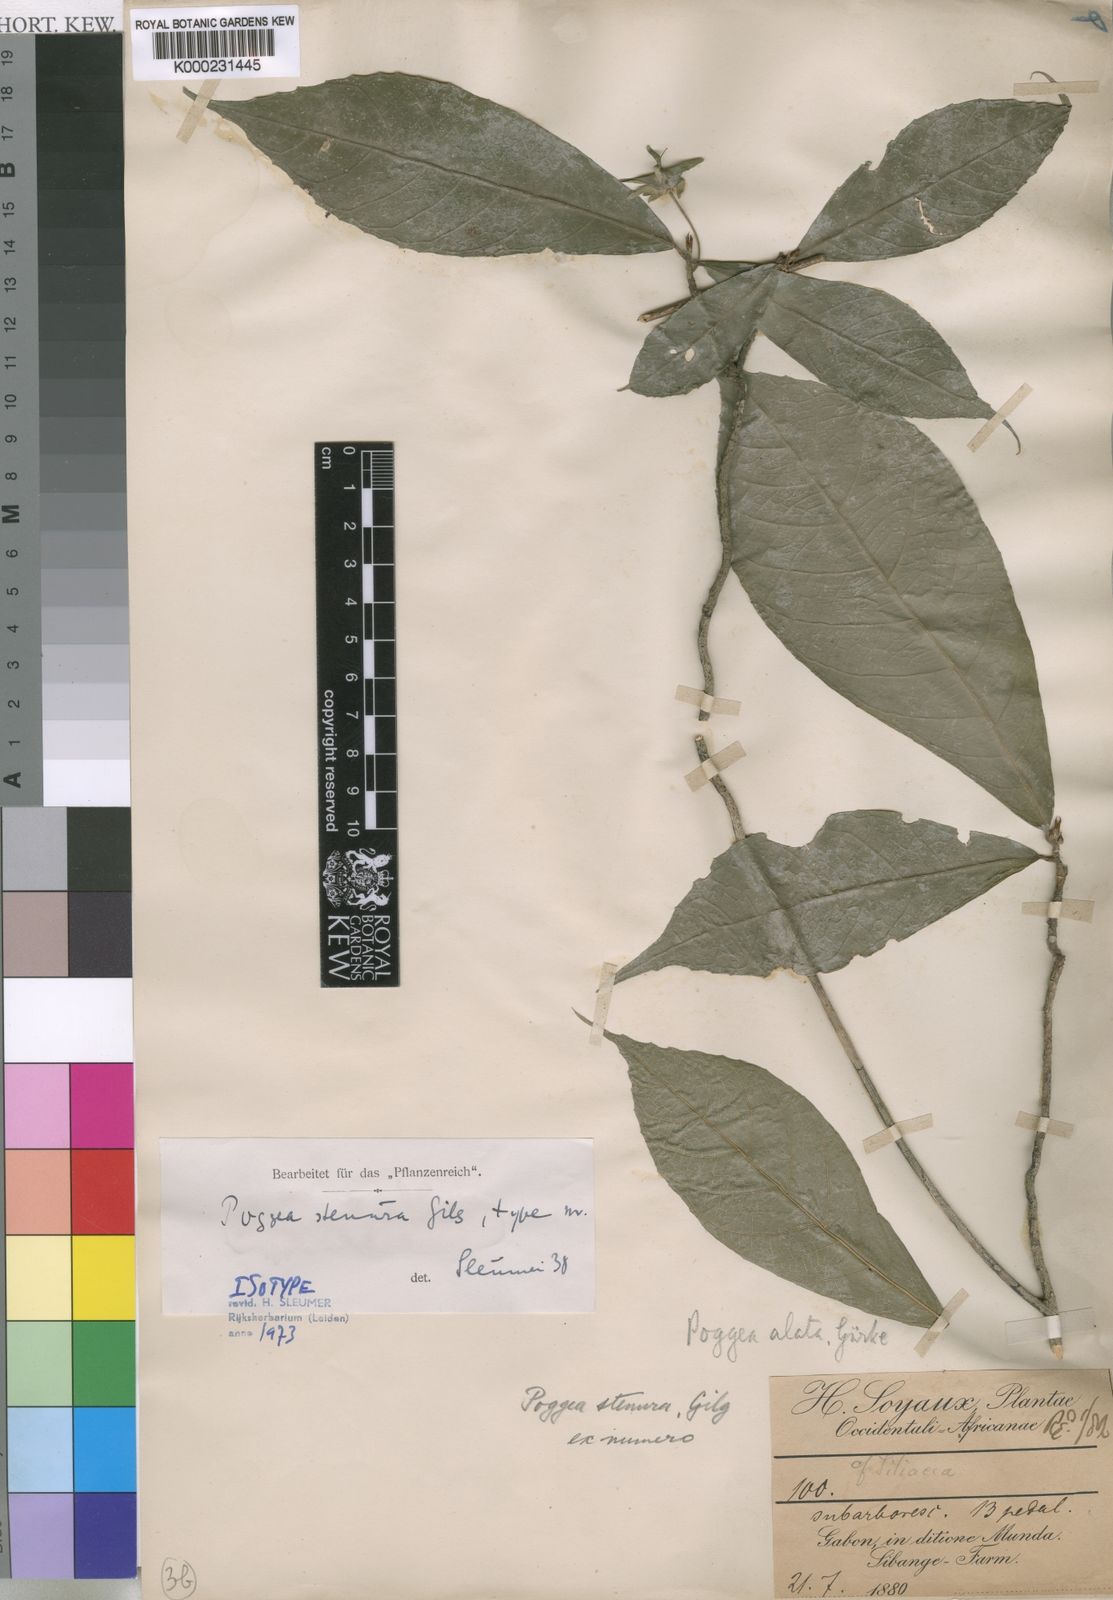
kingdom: Plantae
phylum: Tracheophyta
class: Magnoliopsida
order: Malpighiales
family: Achariaceae
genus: Poggea
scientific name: Poggea alata
